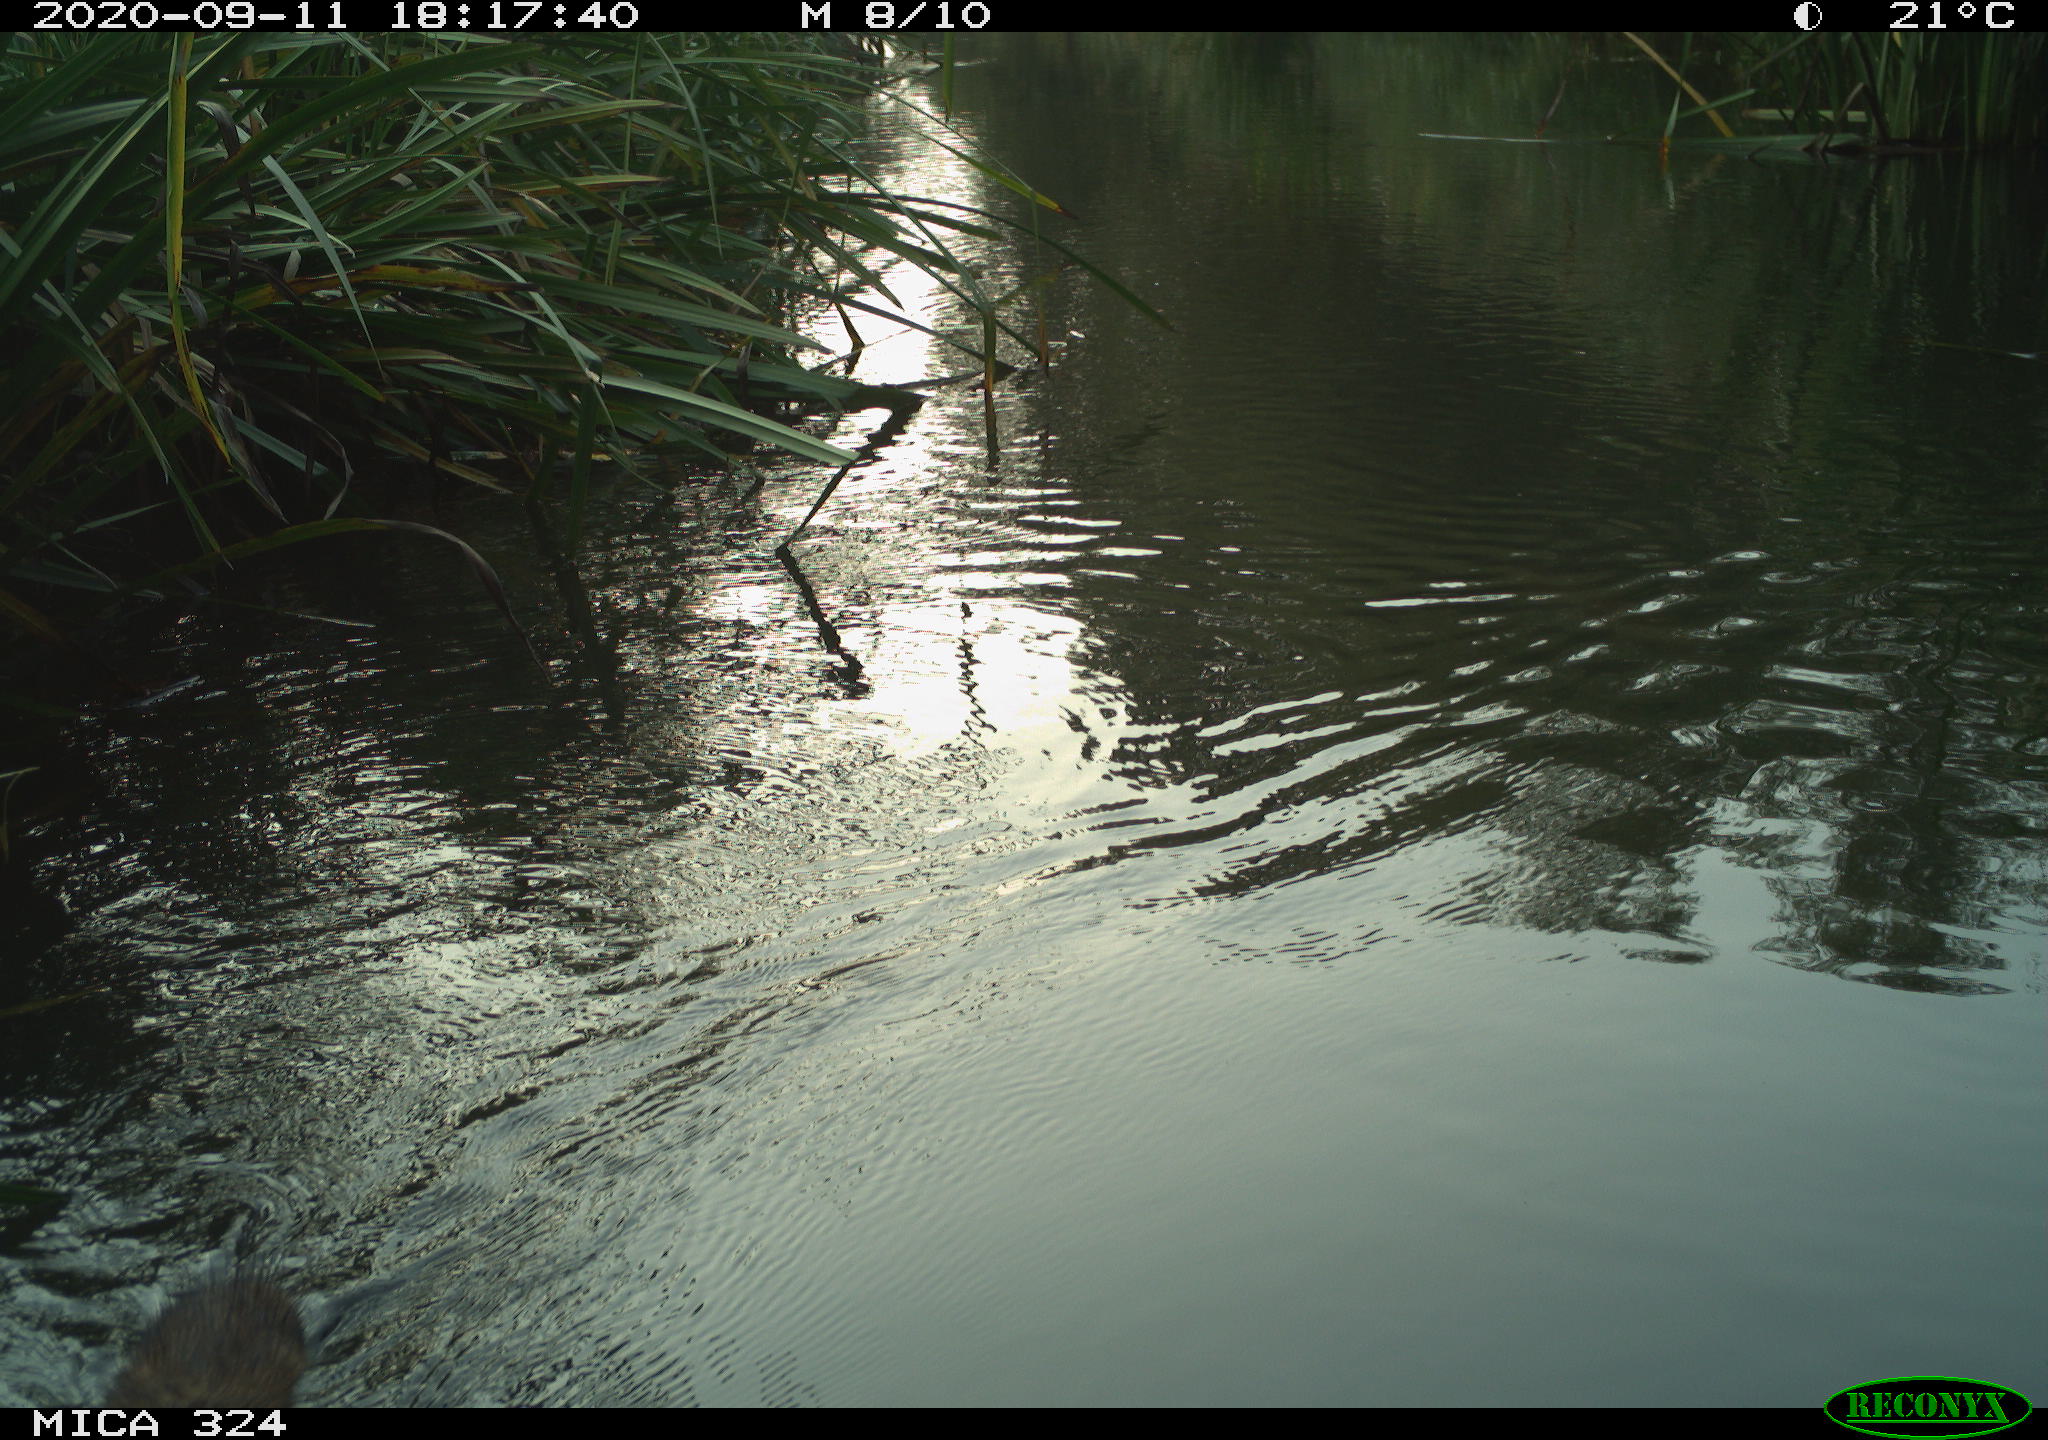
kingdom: Animalia
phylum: Chordata
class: Mammalia
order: Rodentia
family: Cricetidae
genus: Ondatra
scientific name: Ondatra zibethicus
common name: Muskrat
